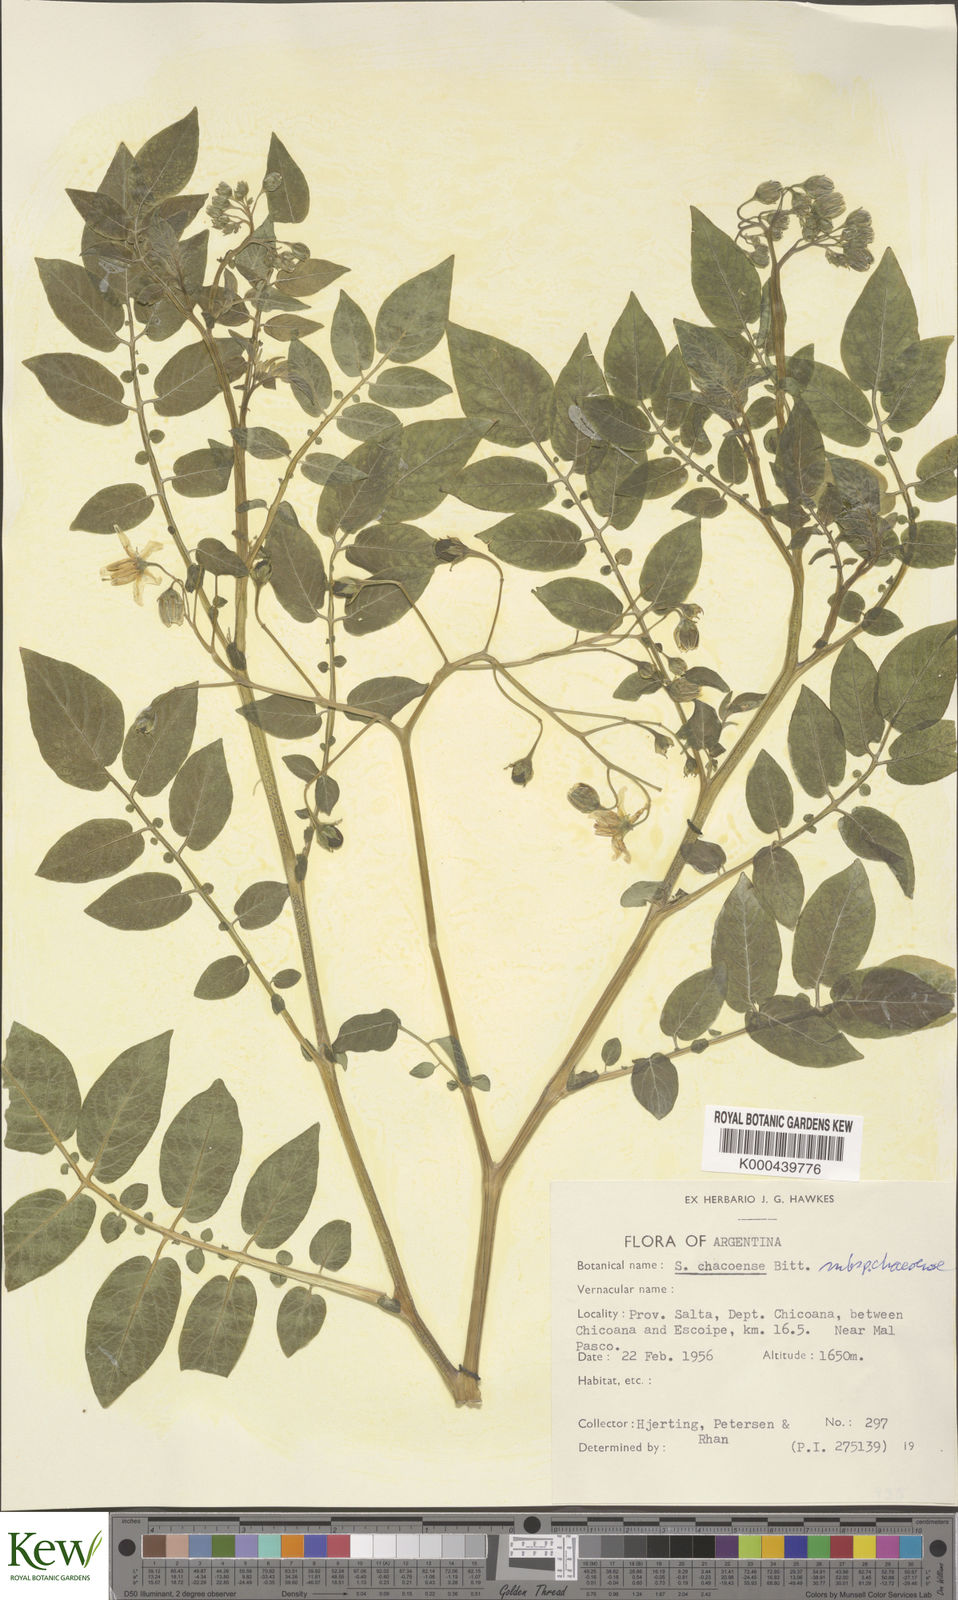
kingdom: Plantae
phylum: Tracheophyta
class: Magnoliopsida
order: Solanales
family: Solanaceae
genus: Solanum
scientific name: Solanum chacoense
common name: Chaco potato
